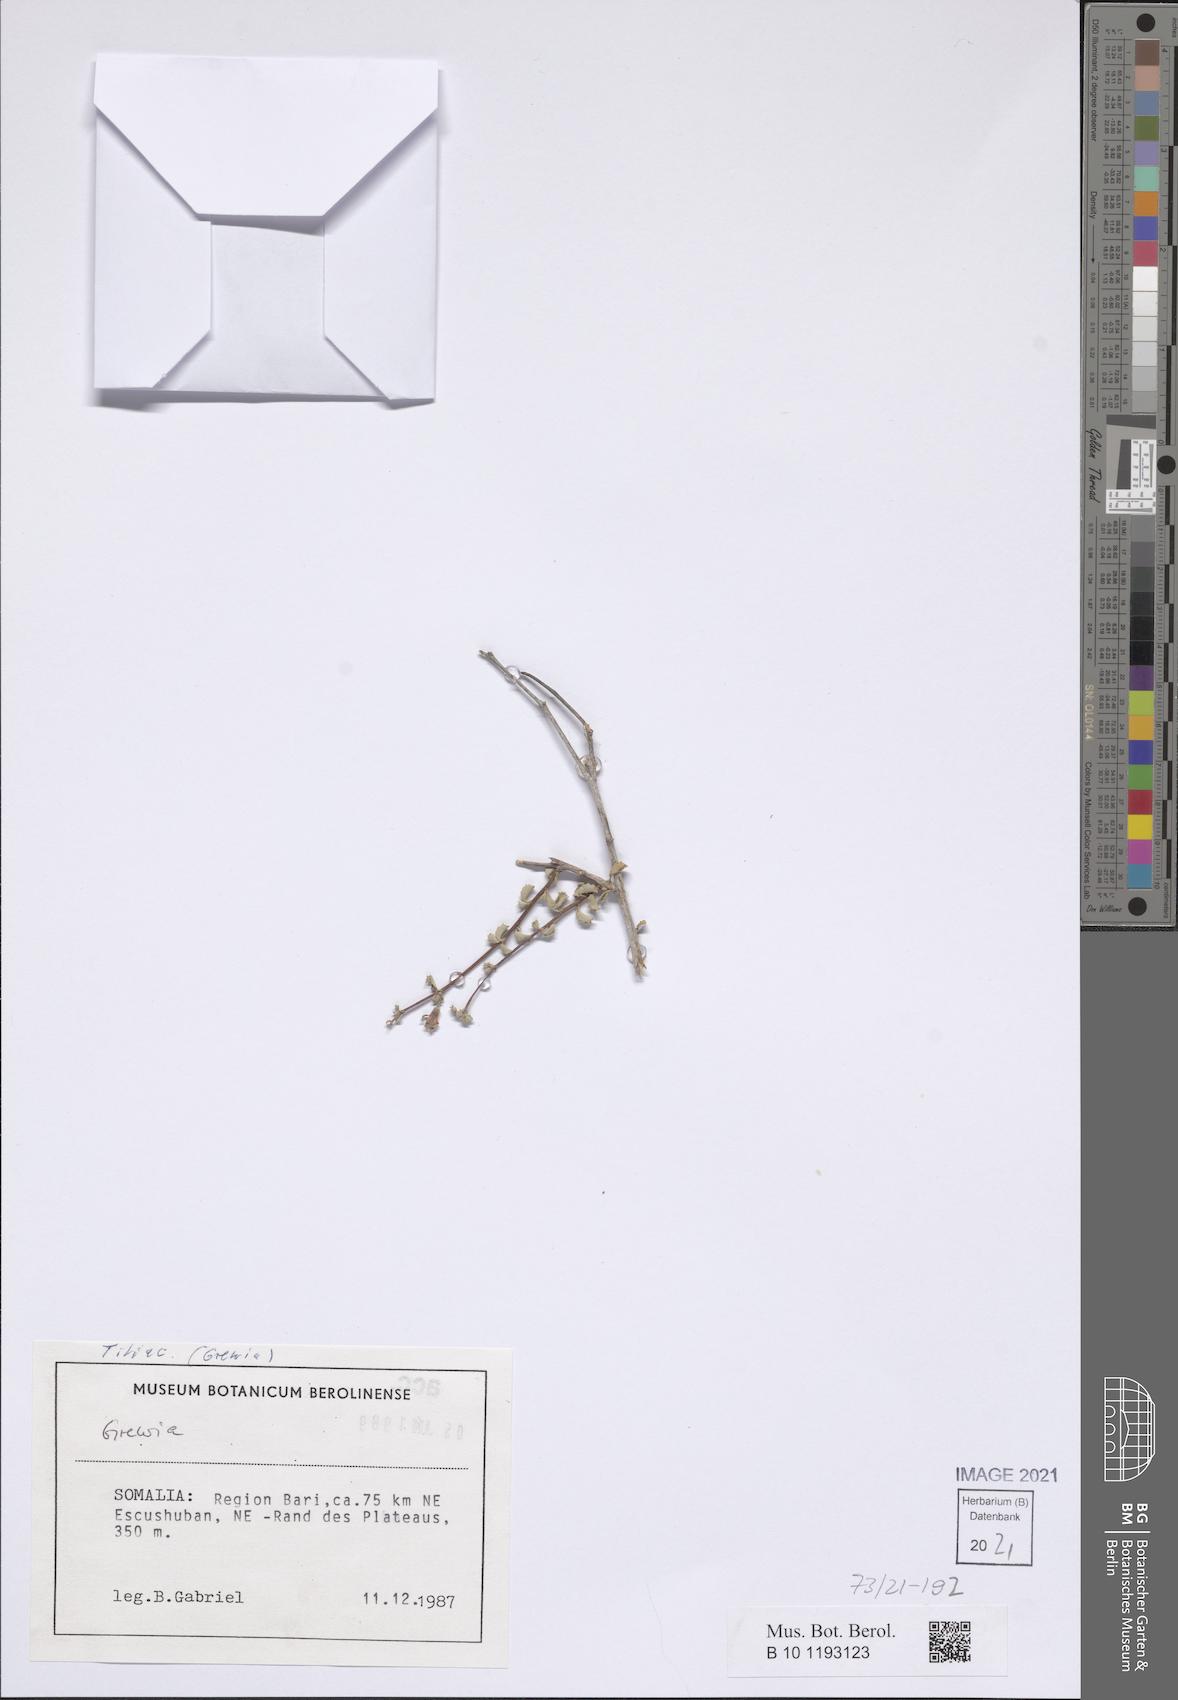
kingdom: Plantae
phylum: Tracheophyta
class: Magnoliopsida
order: Malvales
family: Malvaceae
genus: Triumfetta
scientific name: Triumfetta actinocarpa
